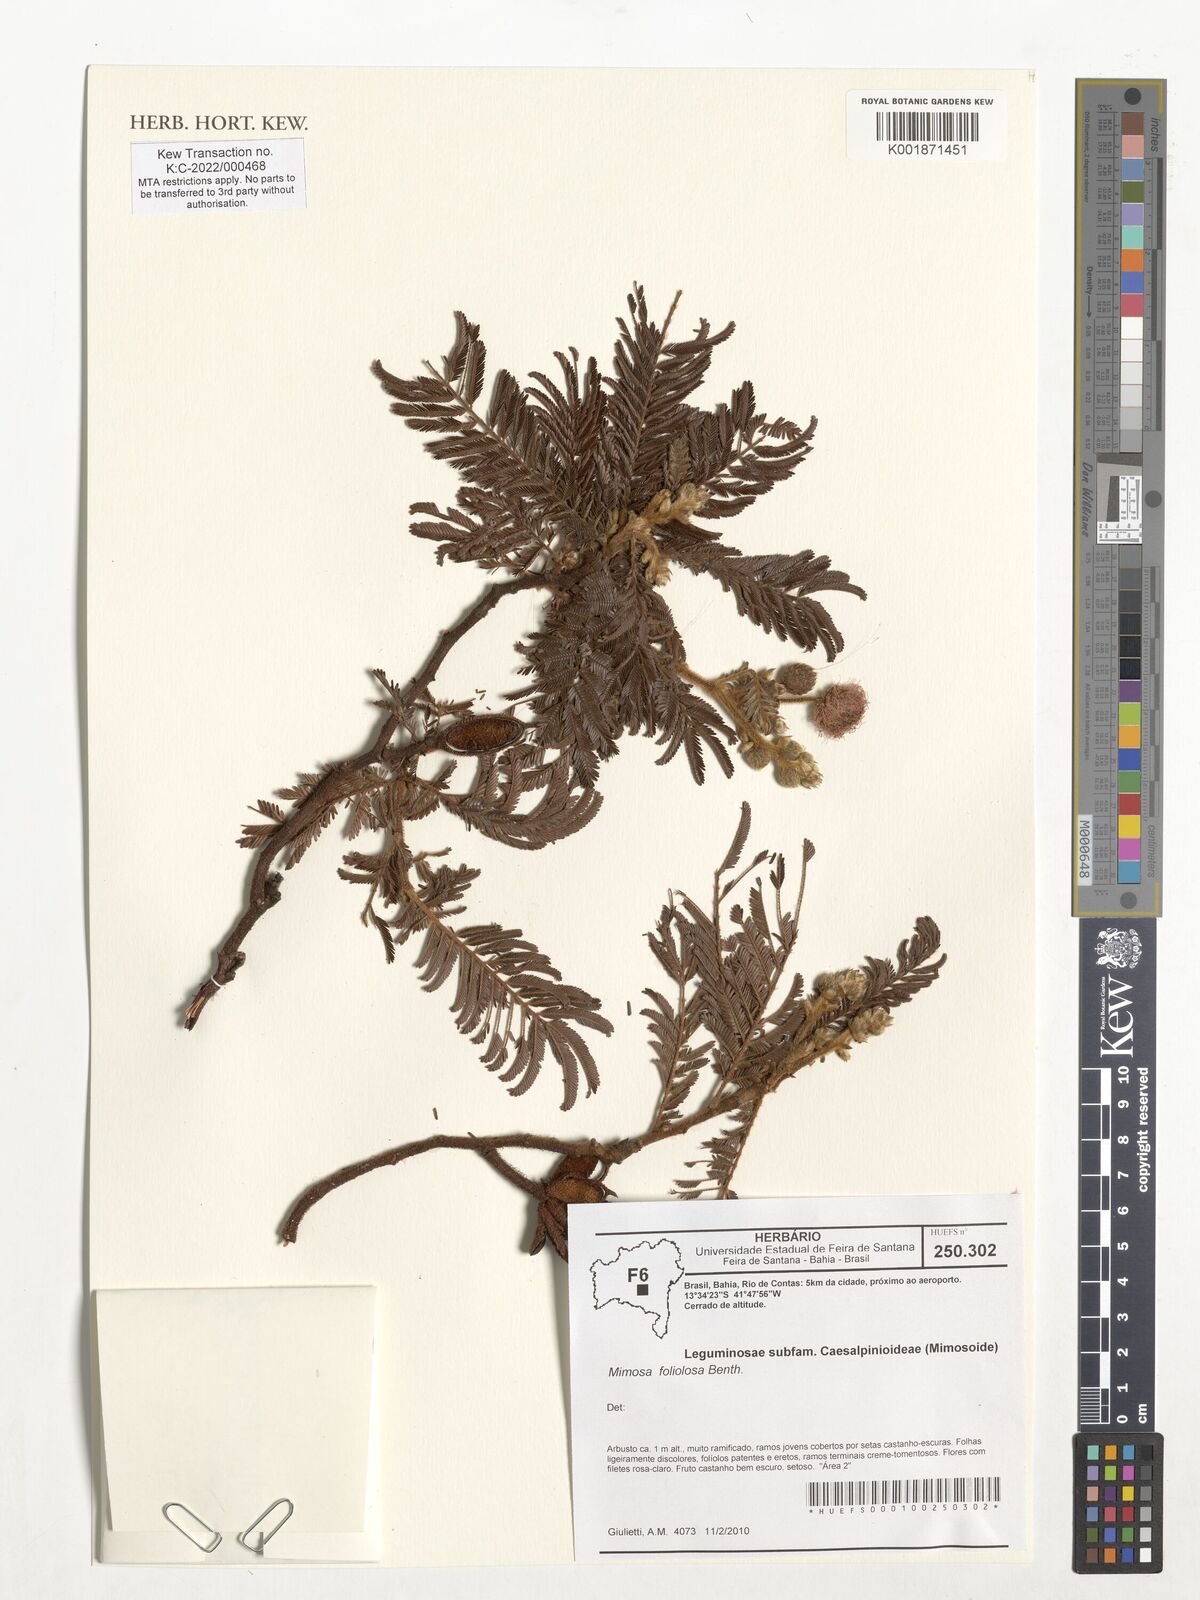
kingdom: Plantae
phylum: Tracheophyta
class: Magnoliopsida
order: Fabales
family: Fabaceae
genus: Mimosa
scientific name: Mimosa foliolosa
